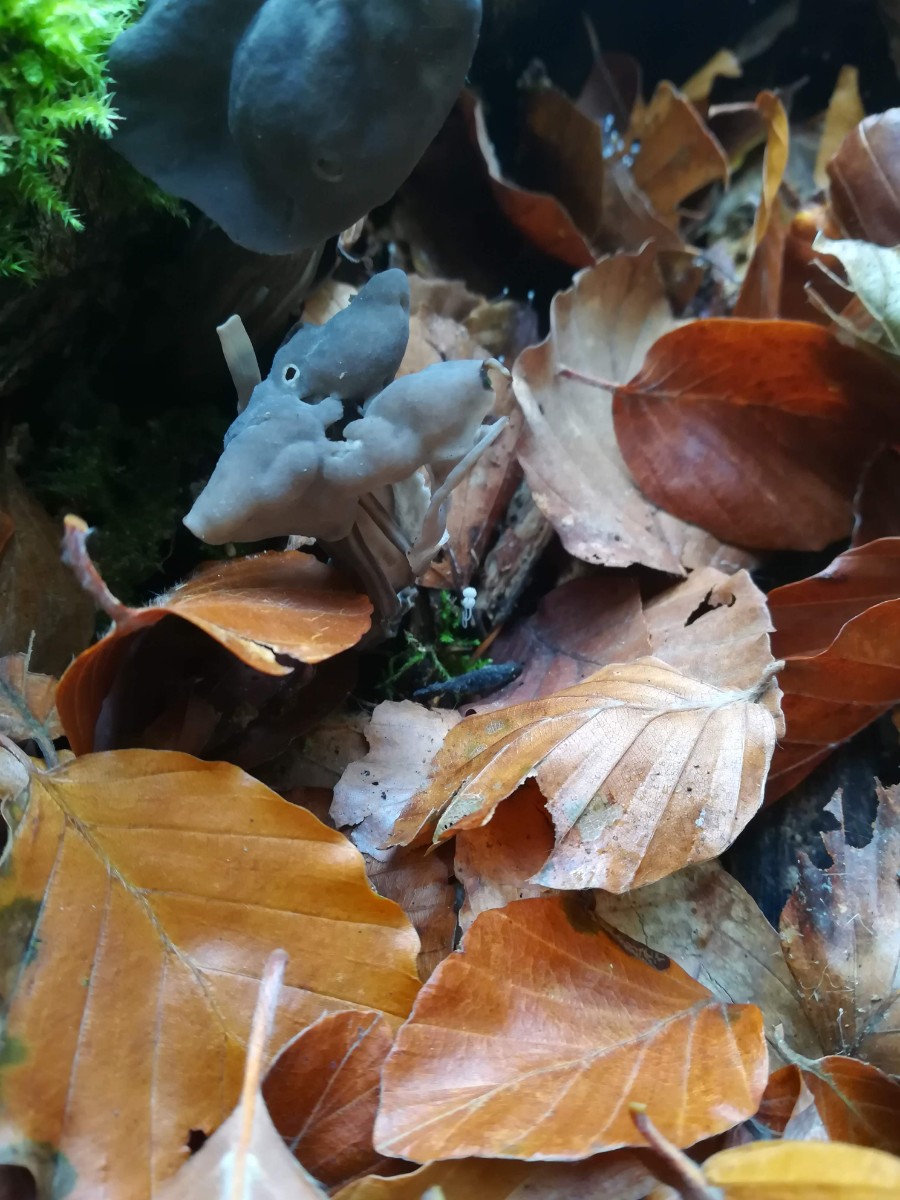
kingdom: Fungi
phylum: Ascomycota
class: Pezizomycetes
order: Pezizales
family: Helvellaceae
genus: Helvella
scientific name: Helvella lacunosa
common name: grubet foldhat
